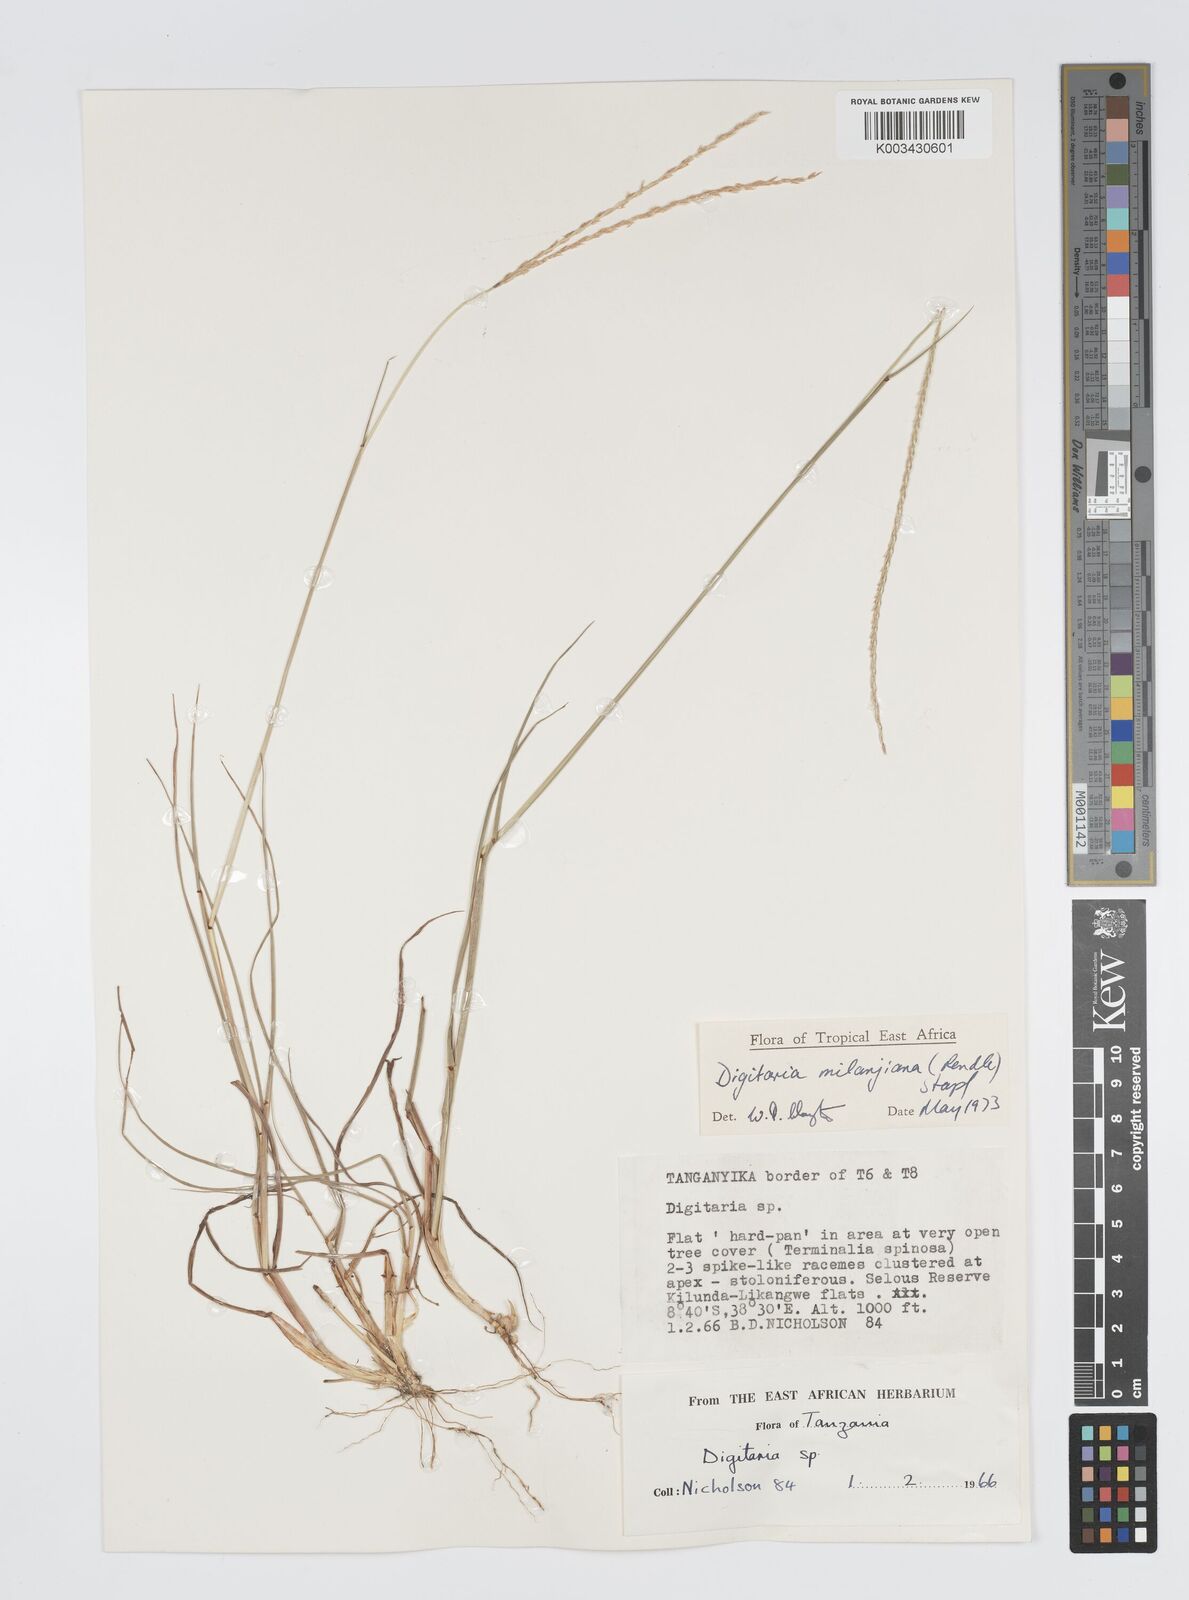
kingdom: Plantae
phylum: Tracheophyta
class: Liliopsida
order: Poales
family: Poaceae
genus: Digitaria
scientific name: Digitaria milanjiana
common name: Madagascar crabgrass
